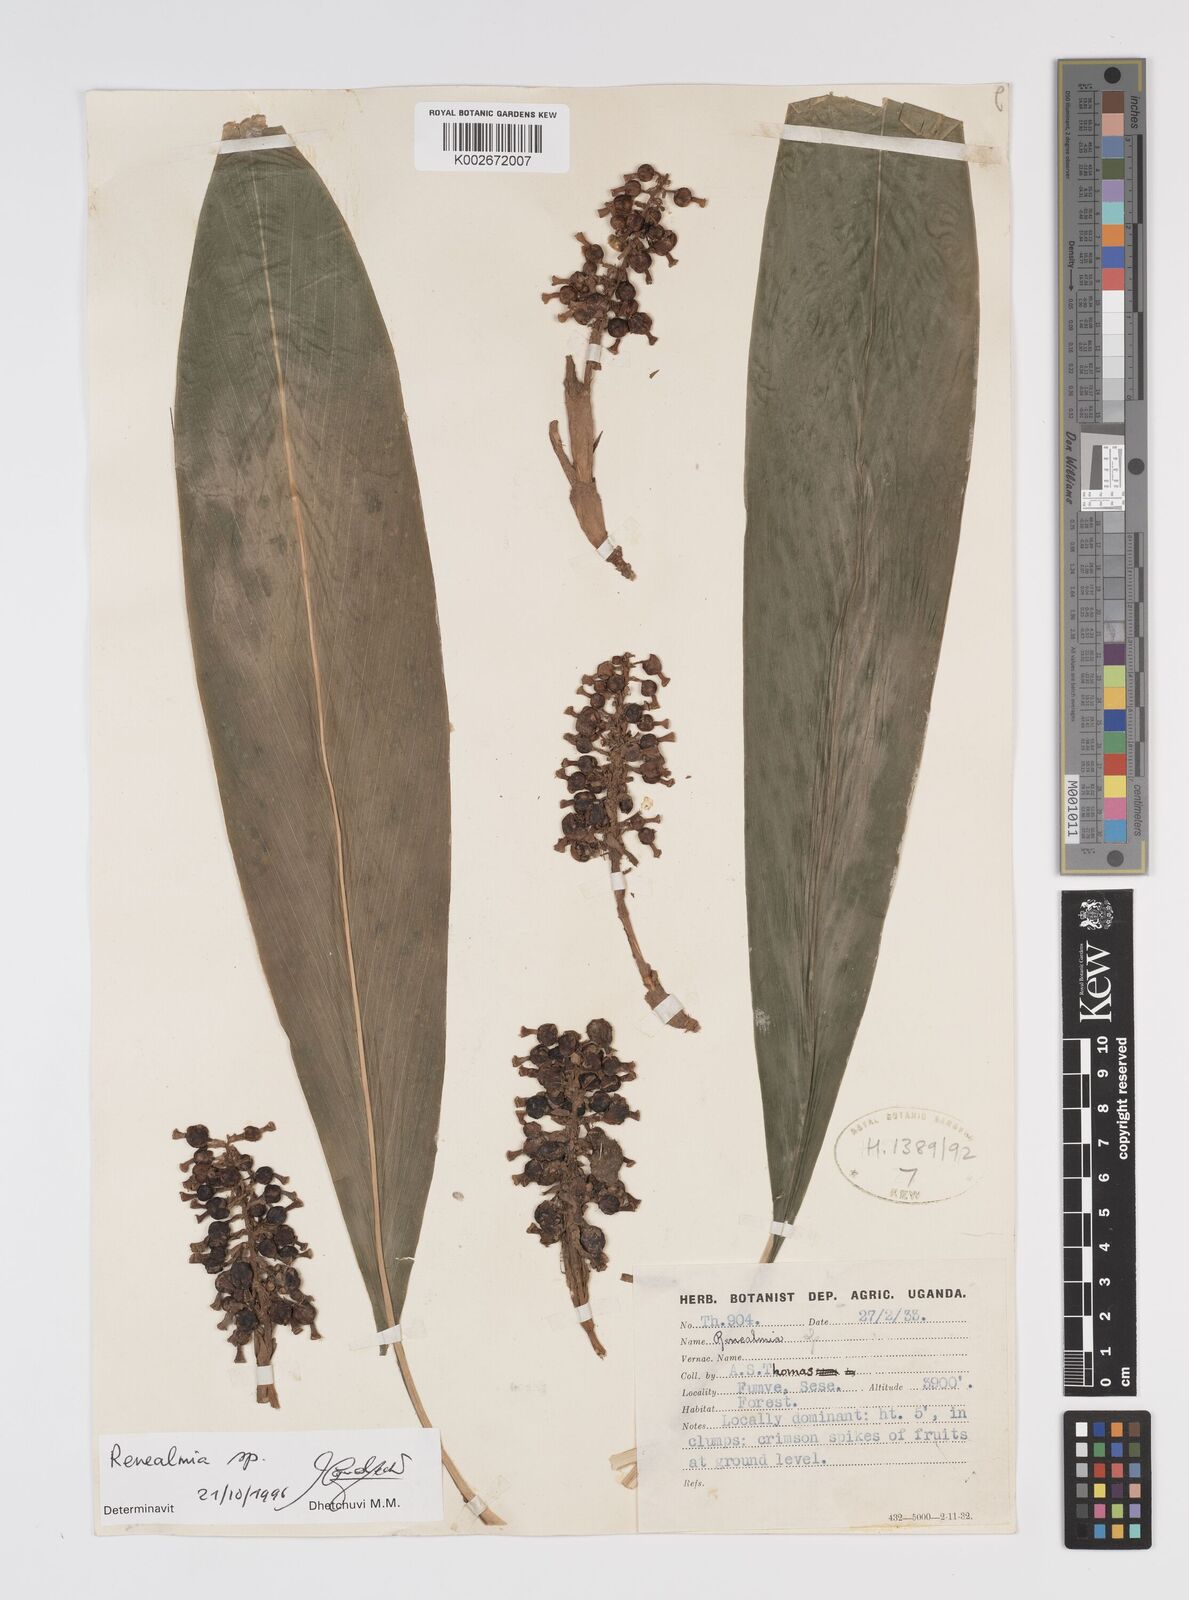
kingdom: Plantae
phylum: Tracheophyta
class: Liliopsida
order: Zingiberales
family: Zingiberaceae
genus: Renealmia
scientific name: Renealmia
